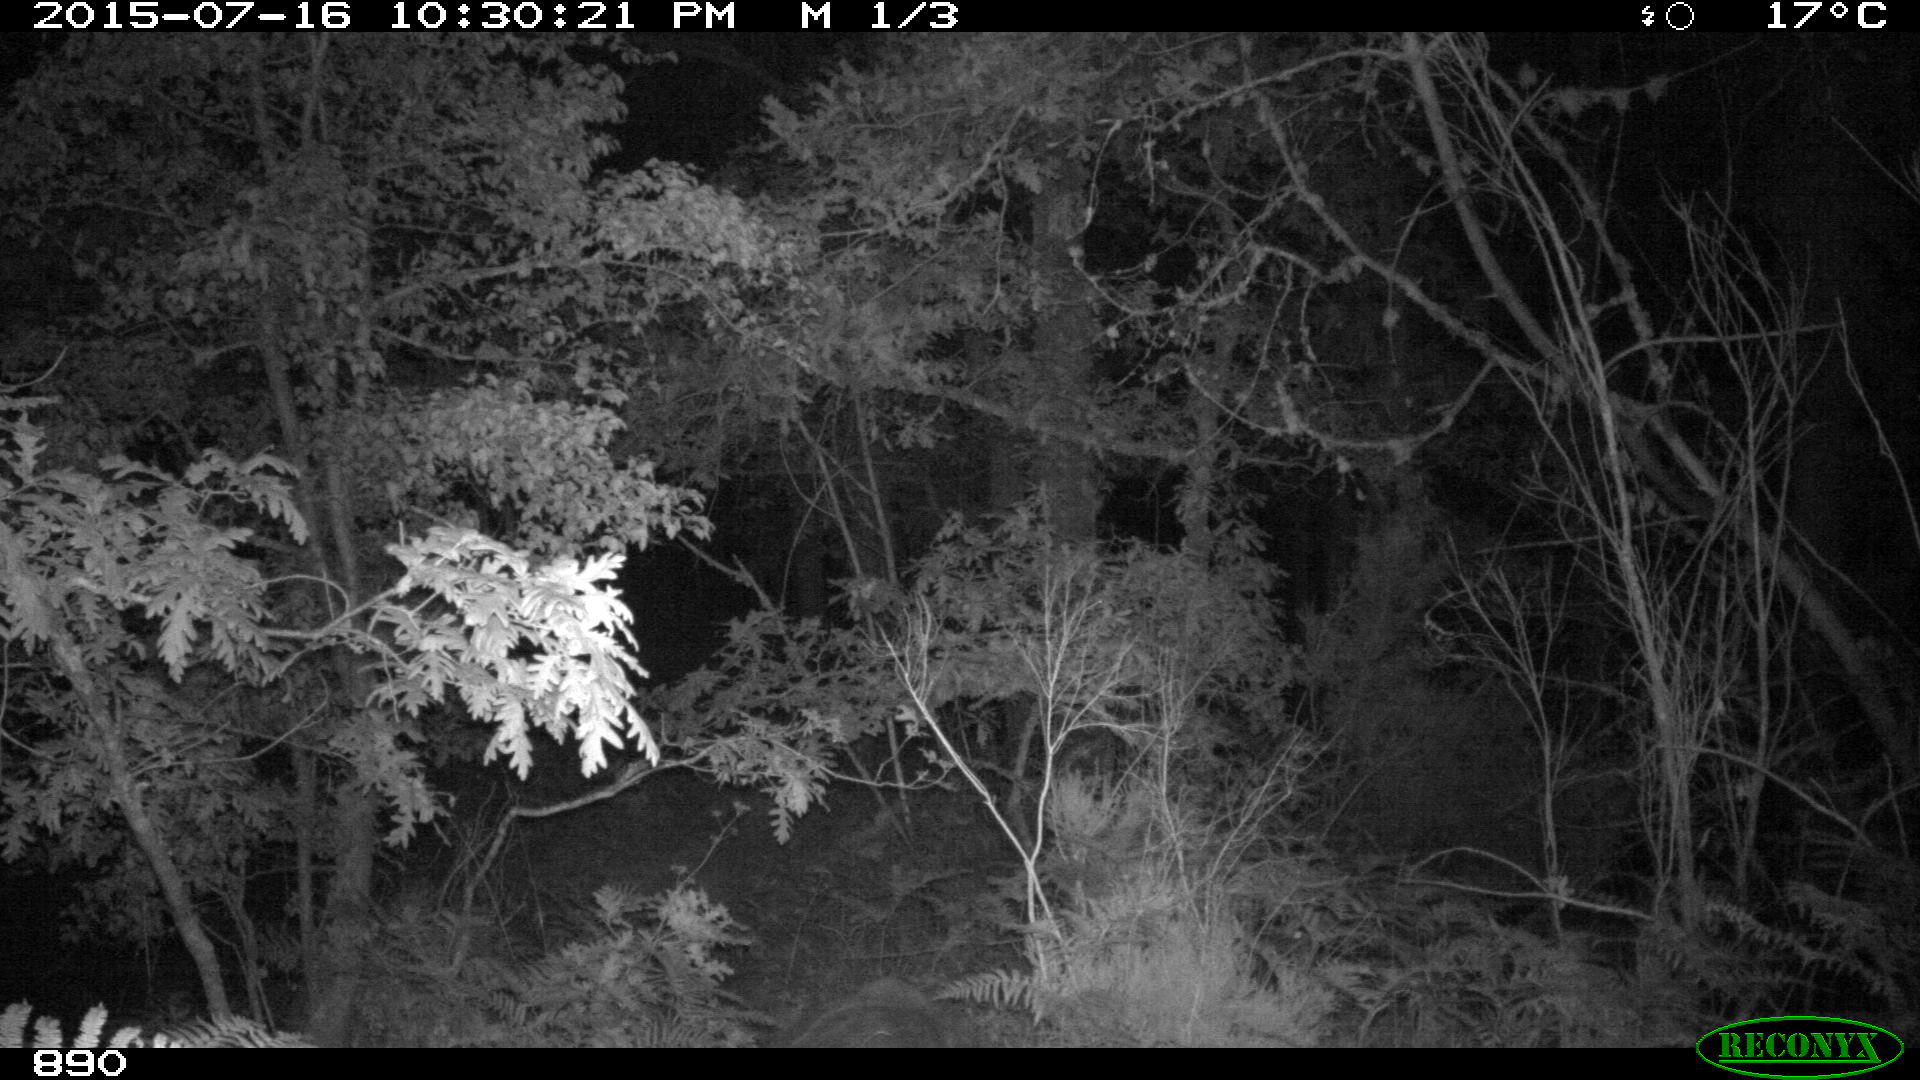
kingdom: Animalia
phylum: Chordata
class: Mammalia
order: Artiodactyla
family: Suidae
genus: Sus
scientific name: Sus scrofa
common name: Wild boar
